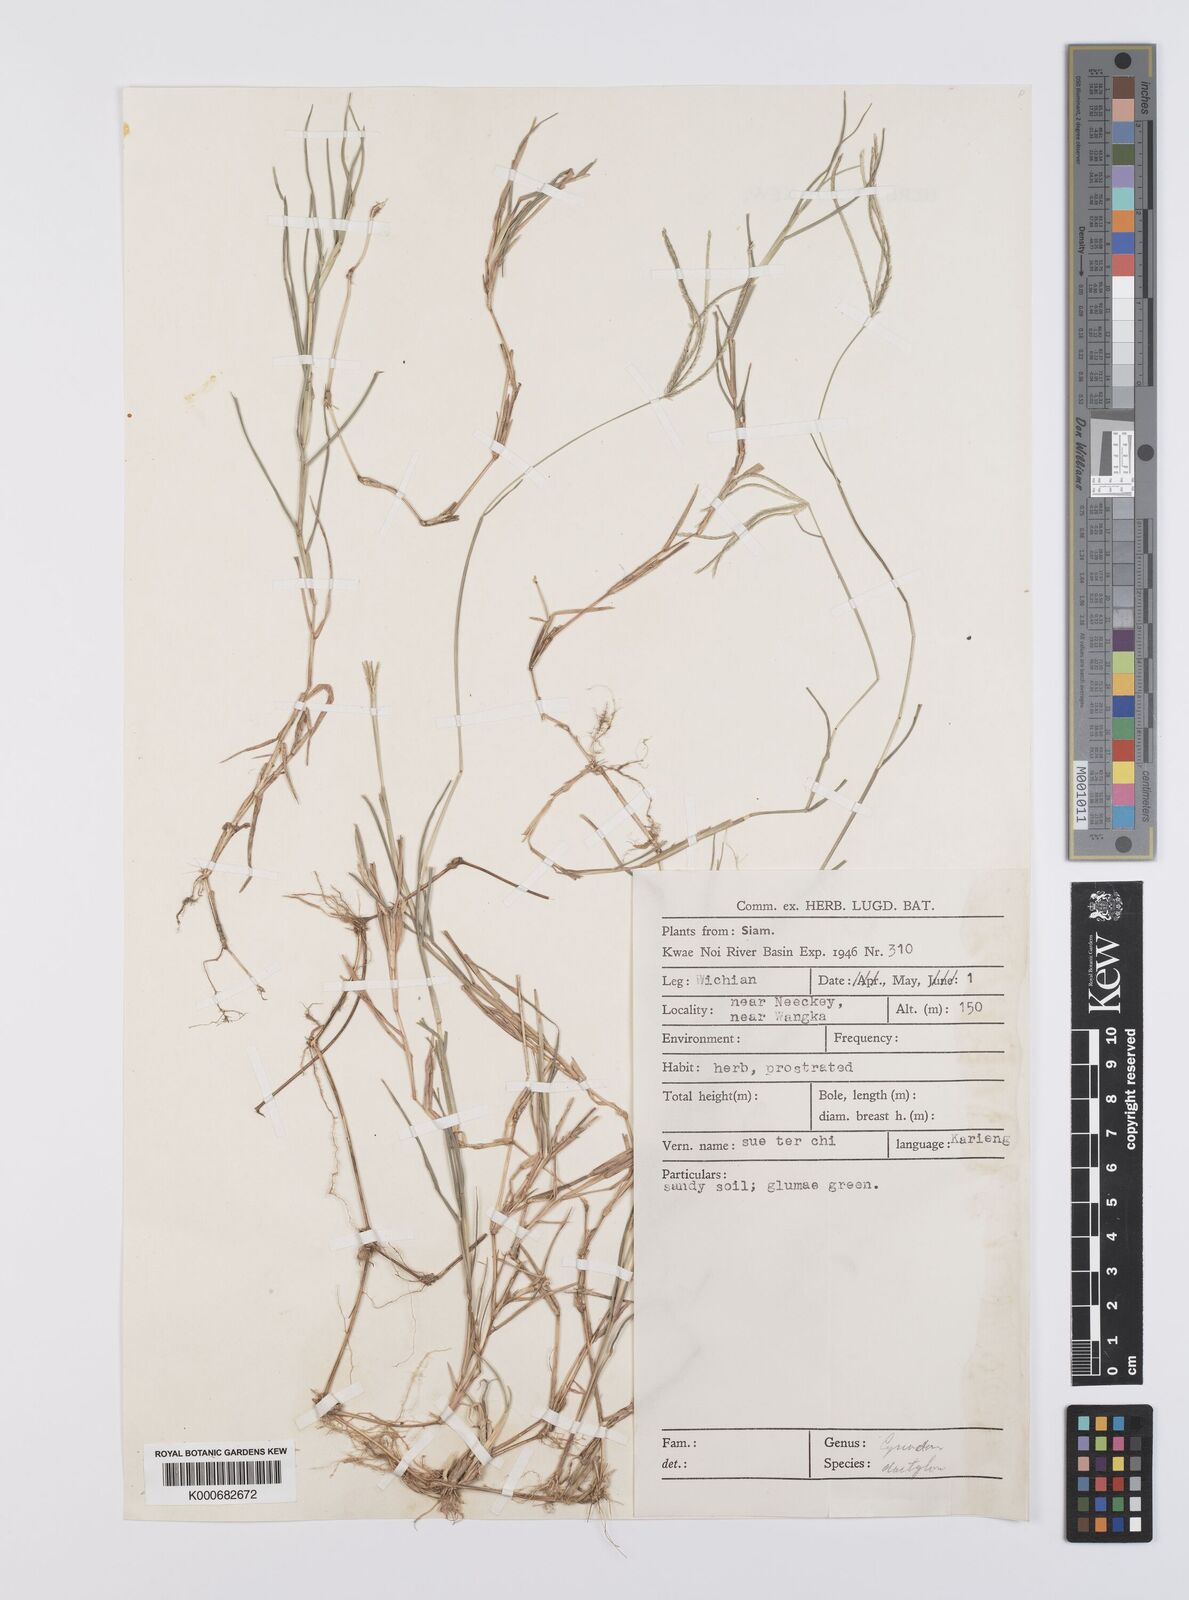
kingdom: Plantae
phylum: Tracheophyta
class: Liliopsida
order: Poales
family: Poaceae
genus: Cynodon
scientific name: Cynodon radiatus
